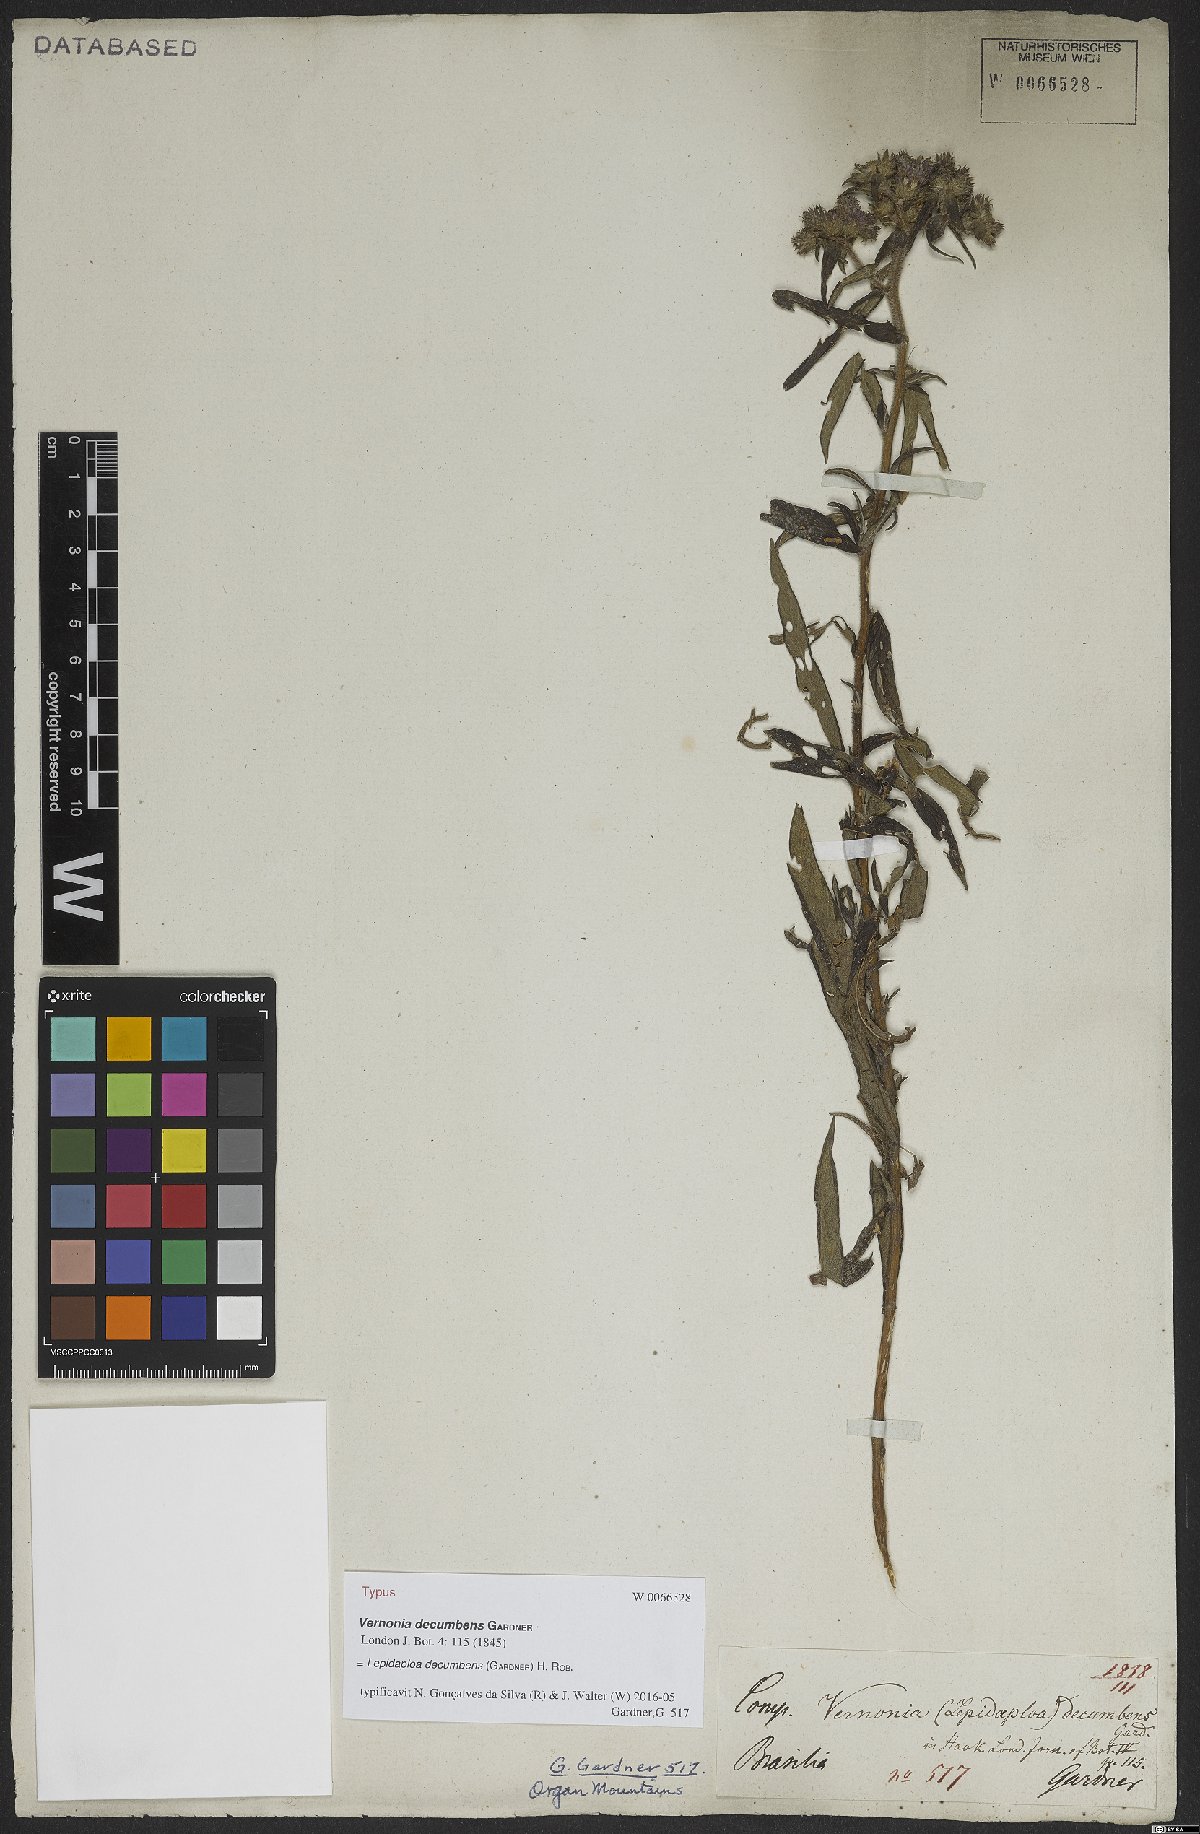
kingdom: Plantae
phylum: Tracheophyta
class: Magnoliopsida
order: Asterales
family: Asteraceae
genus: Lepidaploa
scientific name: Lepidaploa decumbens
